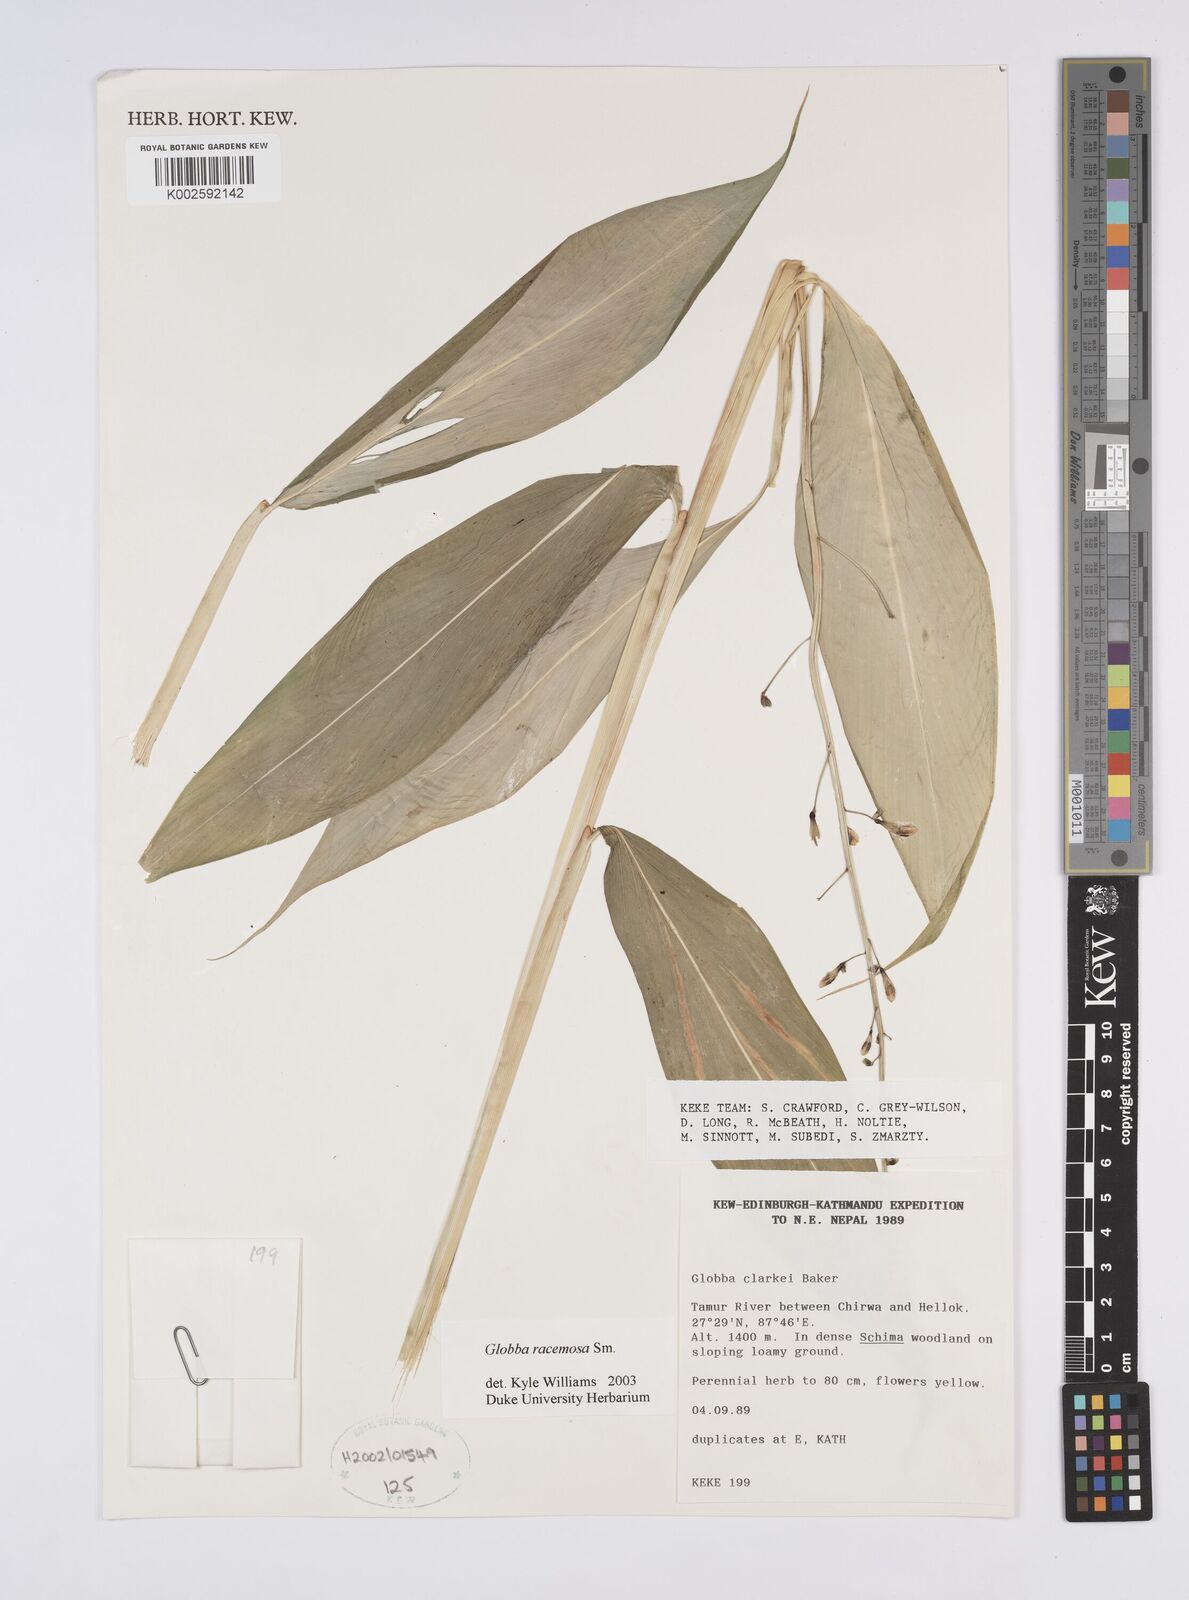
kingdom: Plantae
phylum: Tracheophyta
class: Liliopsida
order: Zingiberales
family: Zingiberaceae
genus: Globba
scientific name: Globba racemosa
